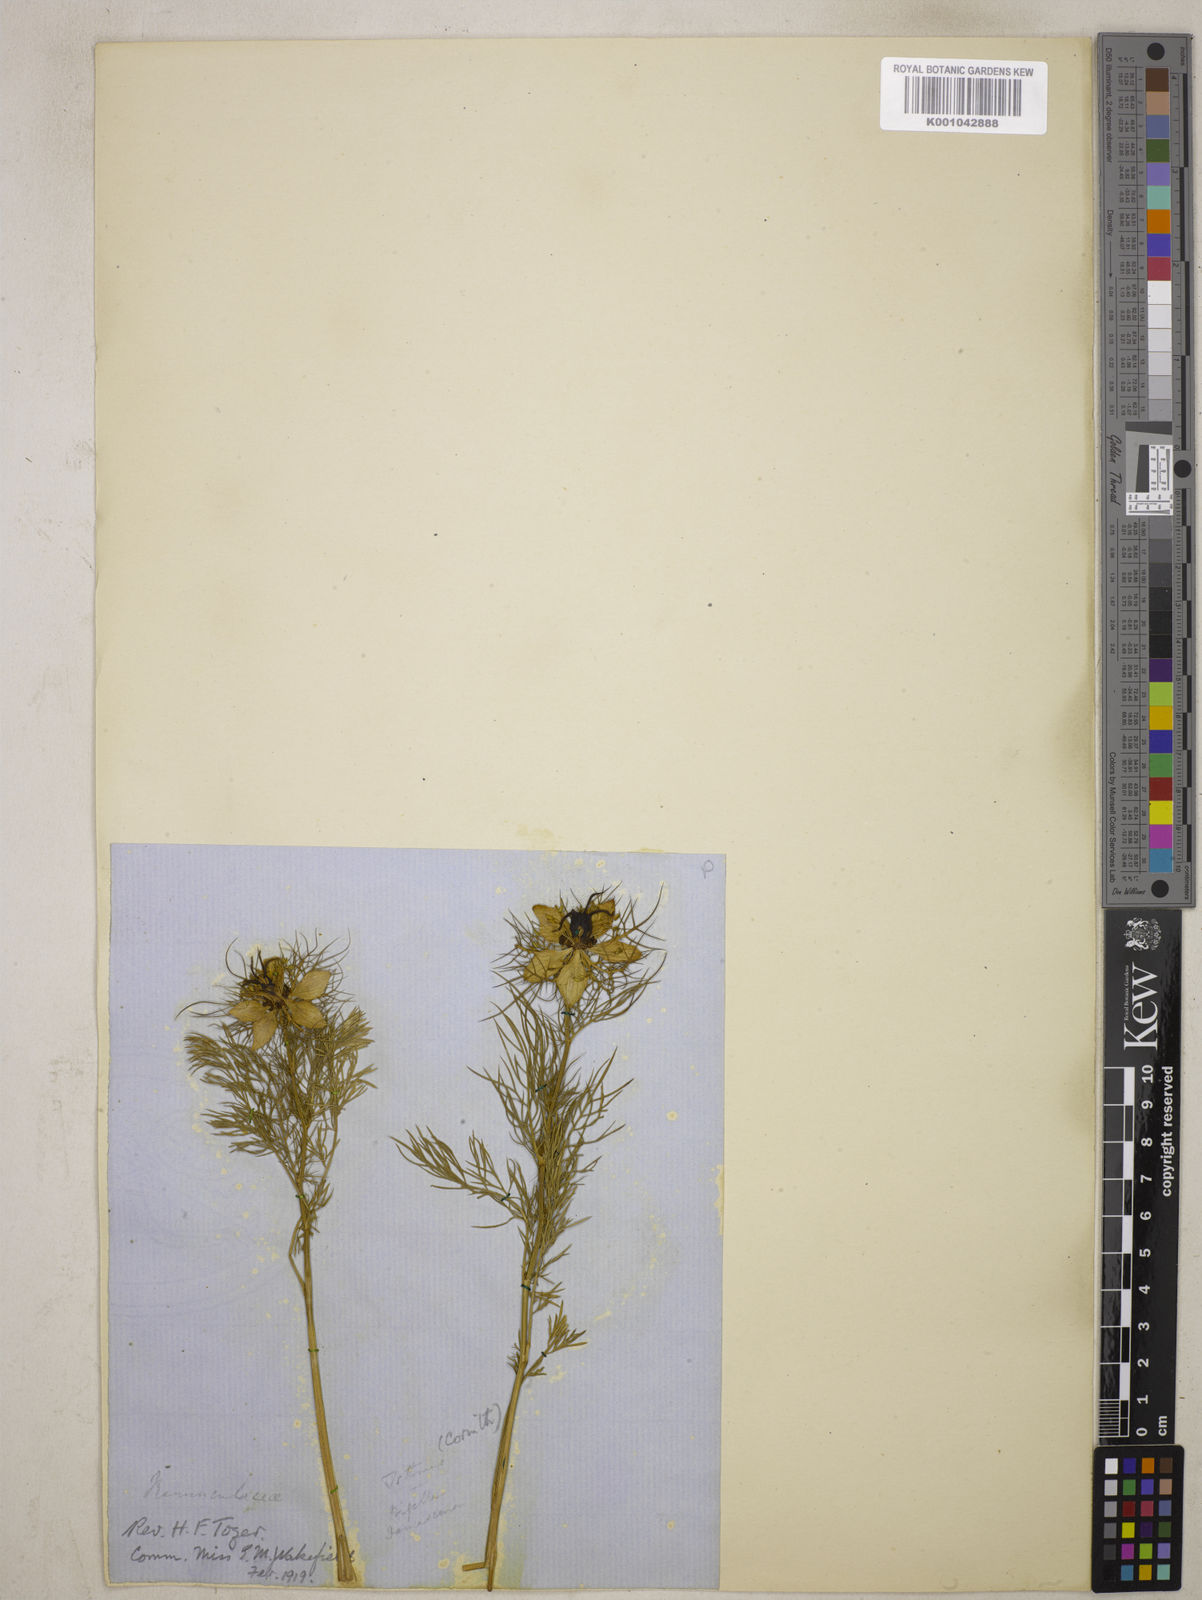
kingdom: Plantae
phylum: Tracheophyta
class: Magnoliopsida
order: Ranunculales
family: Ranunculaceae
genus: Nigella
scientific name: Nigella damascena
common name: Love-in-a-mist
